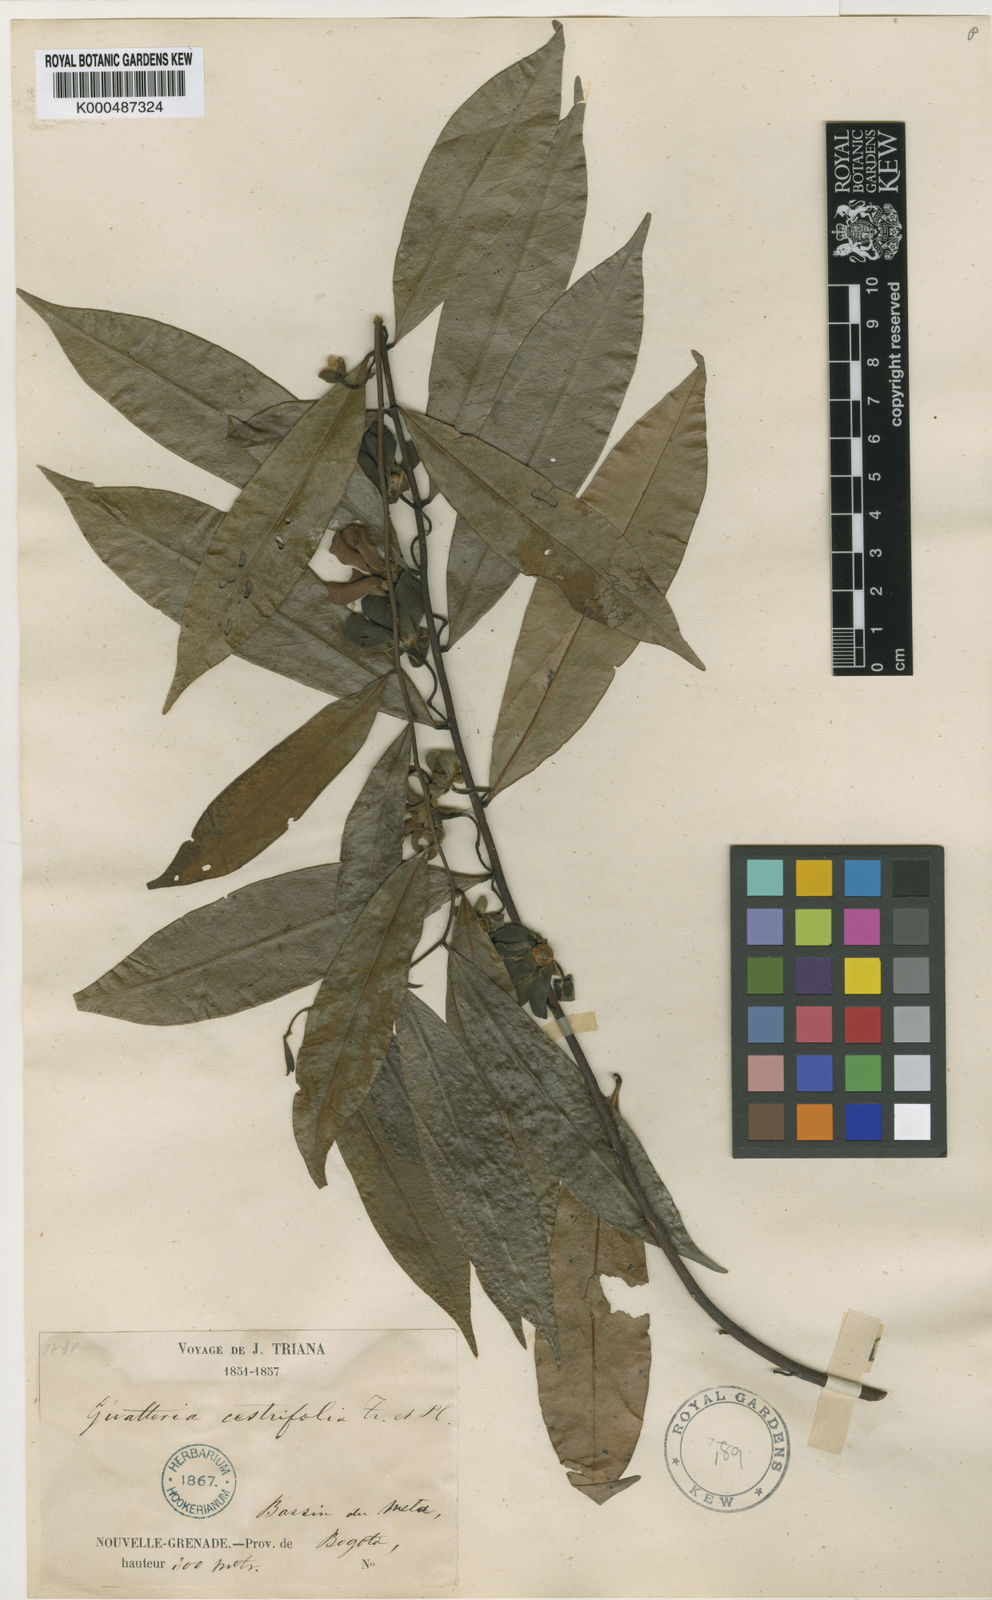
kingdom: Plantae
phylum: Tracheophyta
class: Magnoliopsida
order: Magnoliales
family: Annonaceae
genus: Guatteria
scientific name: Guatteria cestrifolia
